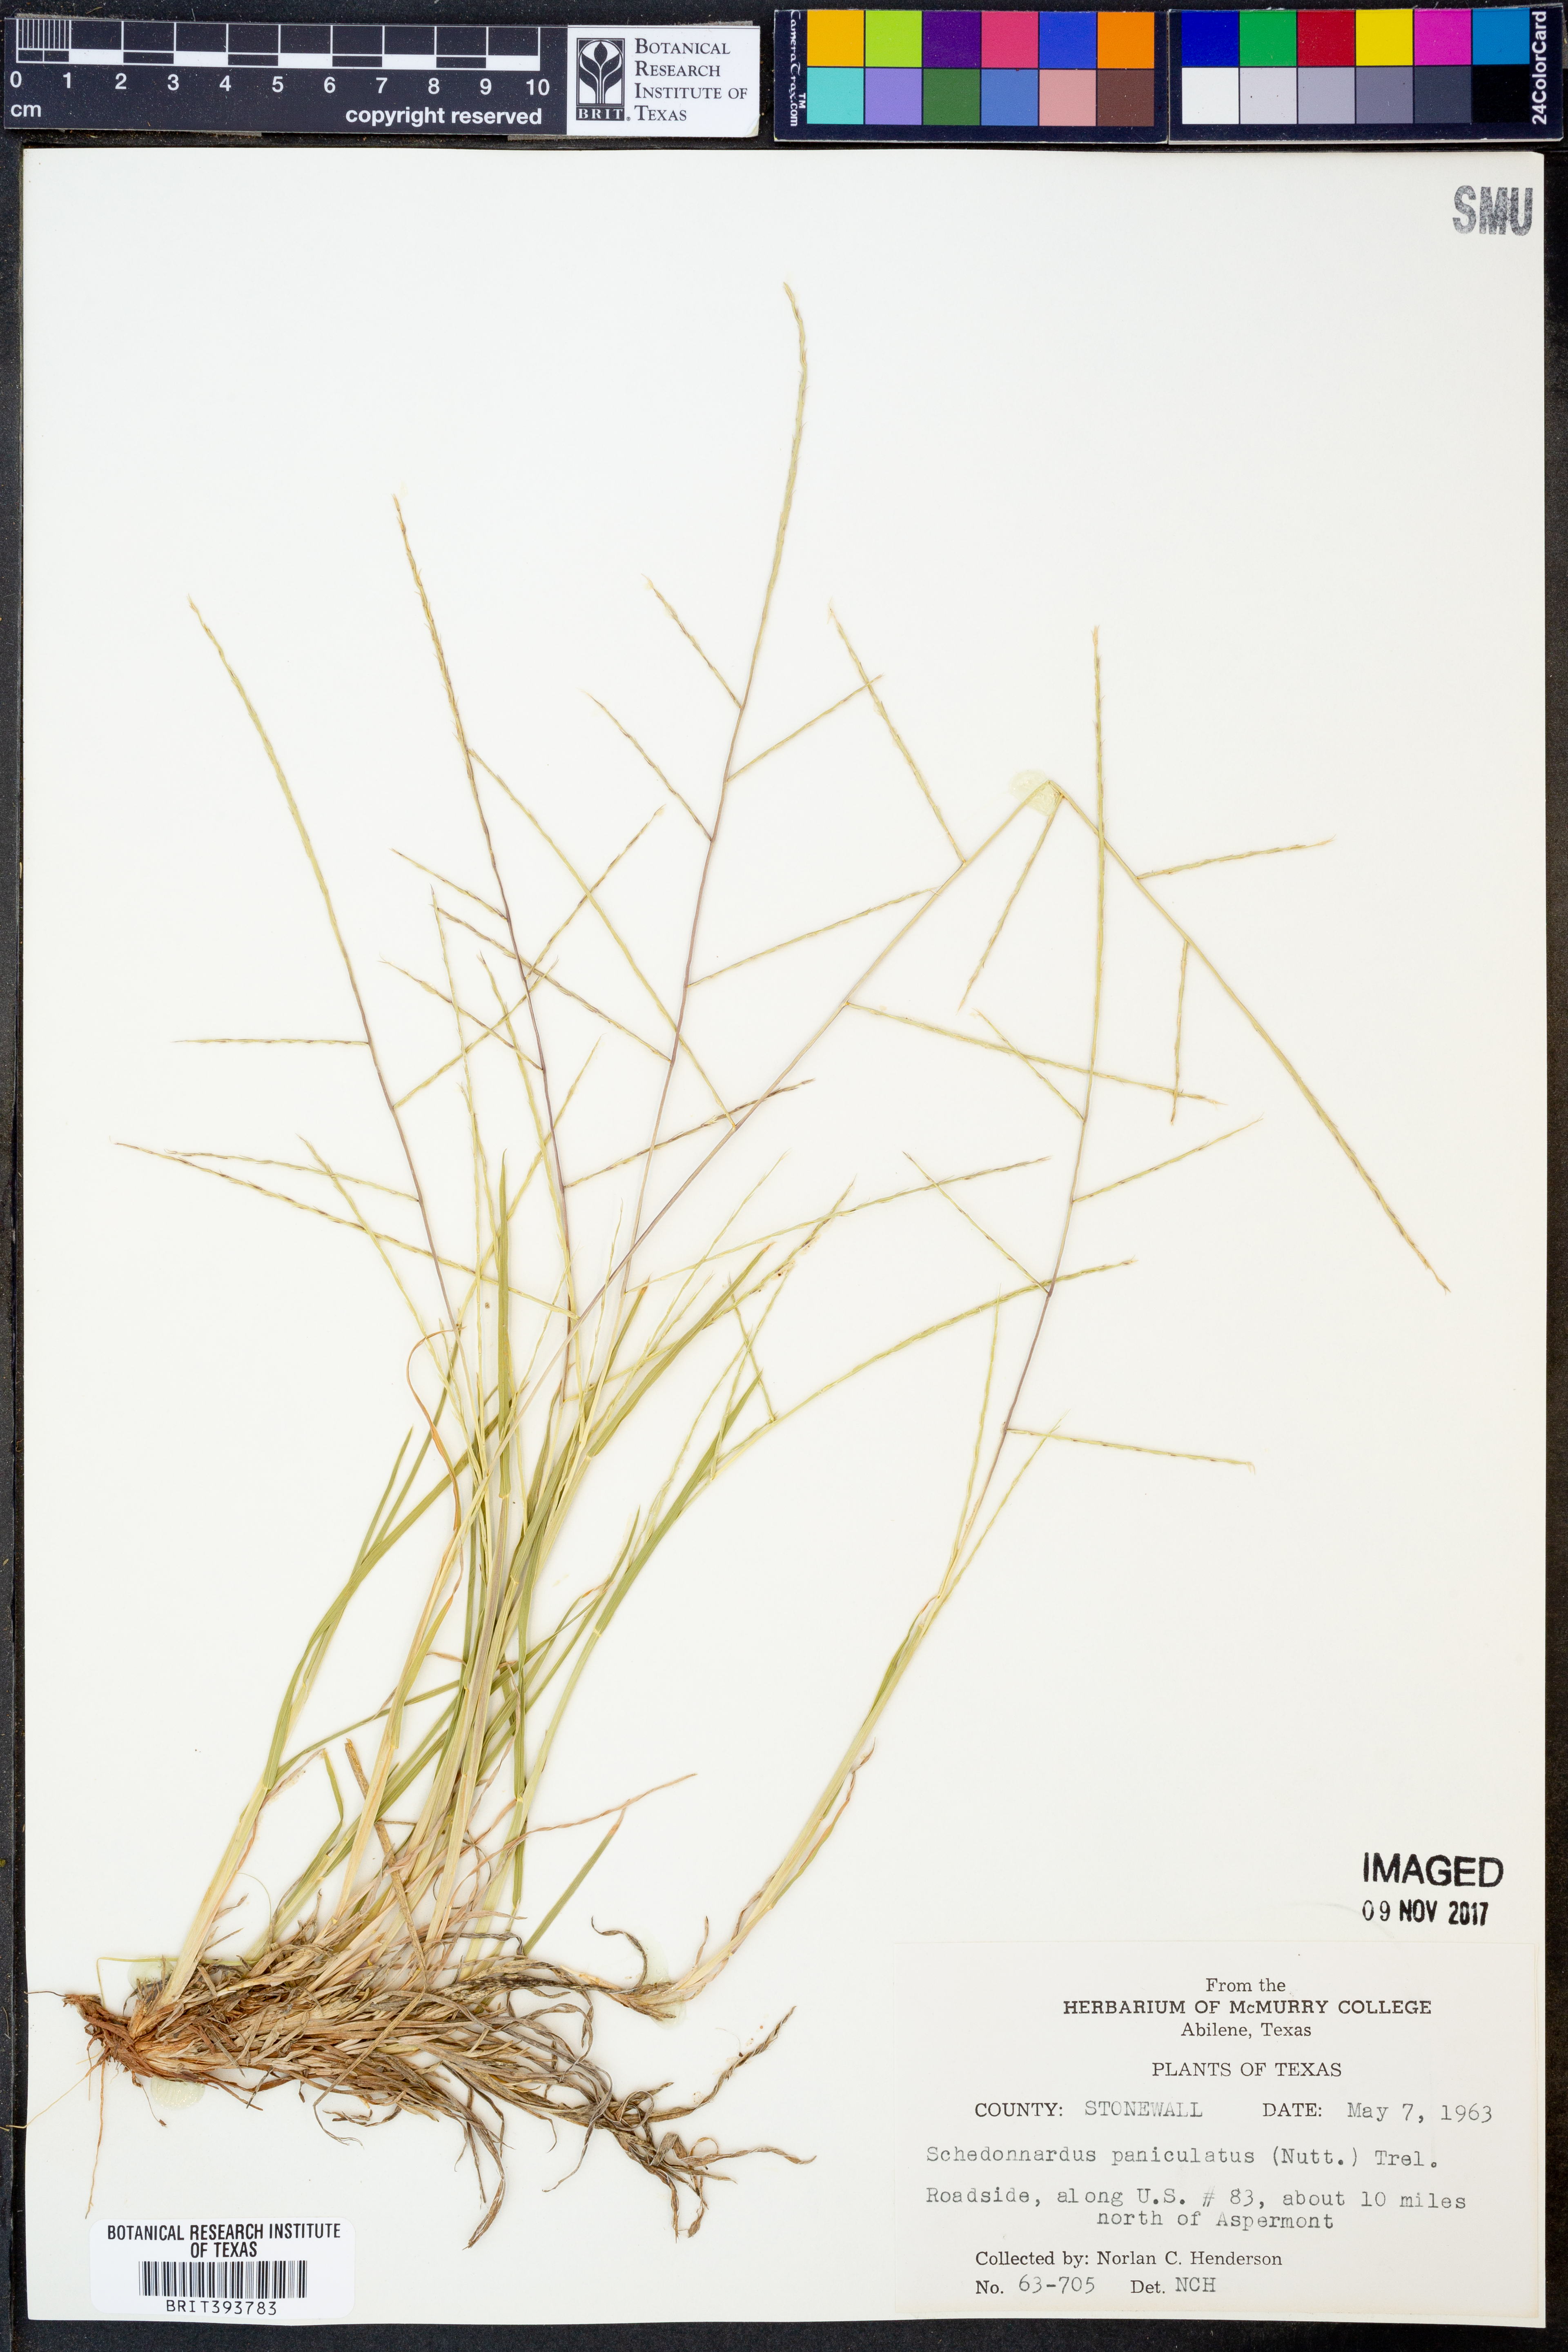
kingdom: Plantae
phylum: Tracheophyta
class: Liliopsida
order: Poales
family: Poaceae
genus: Muhlenbergia
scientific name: Muhlenbergia paniculata
